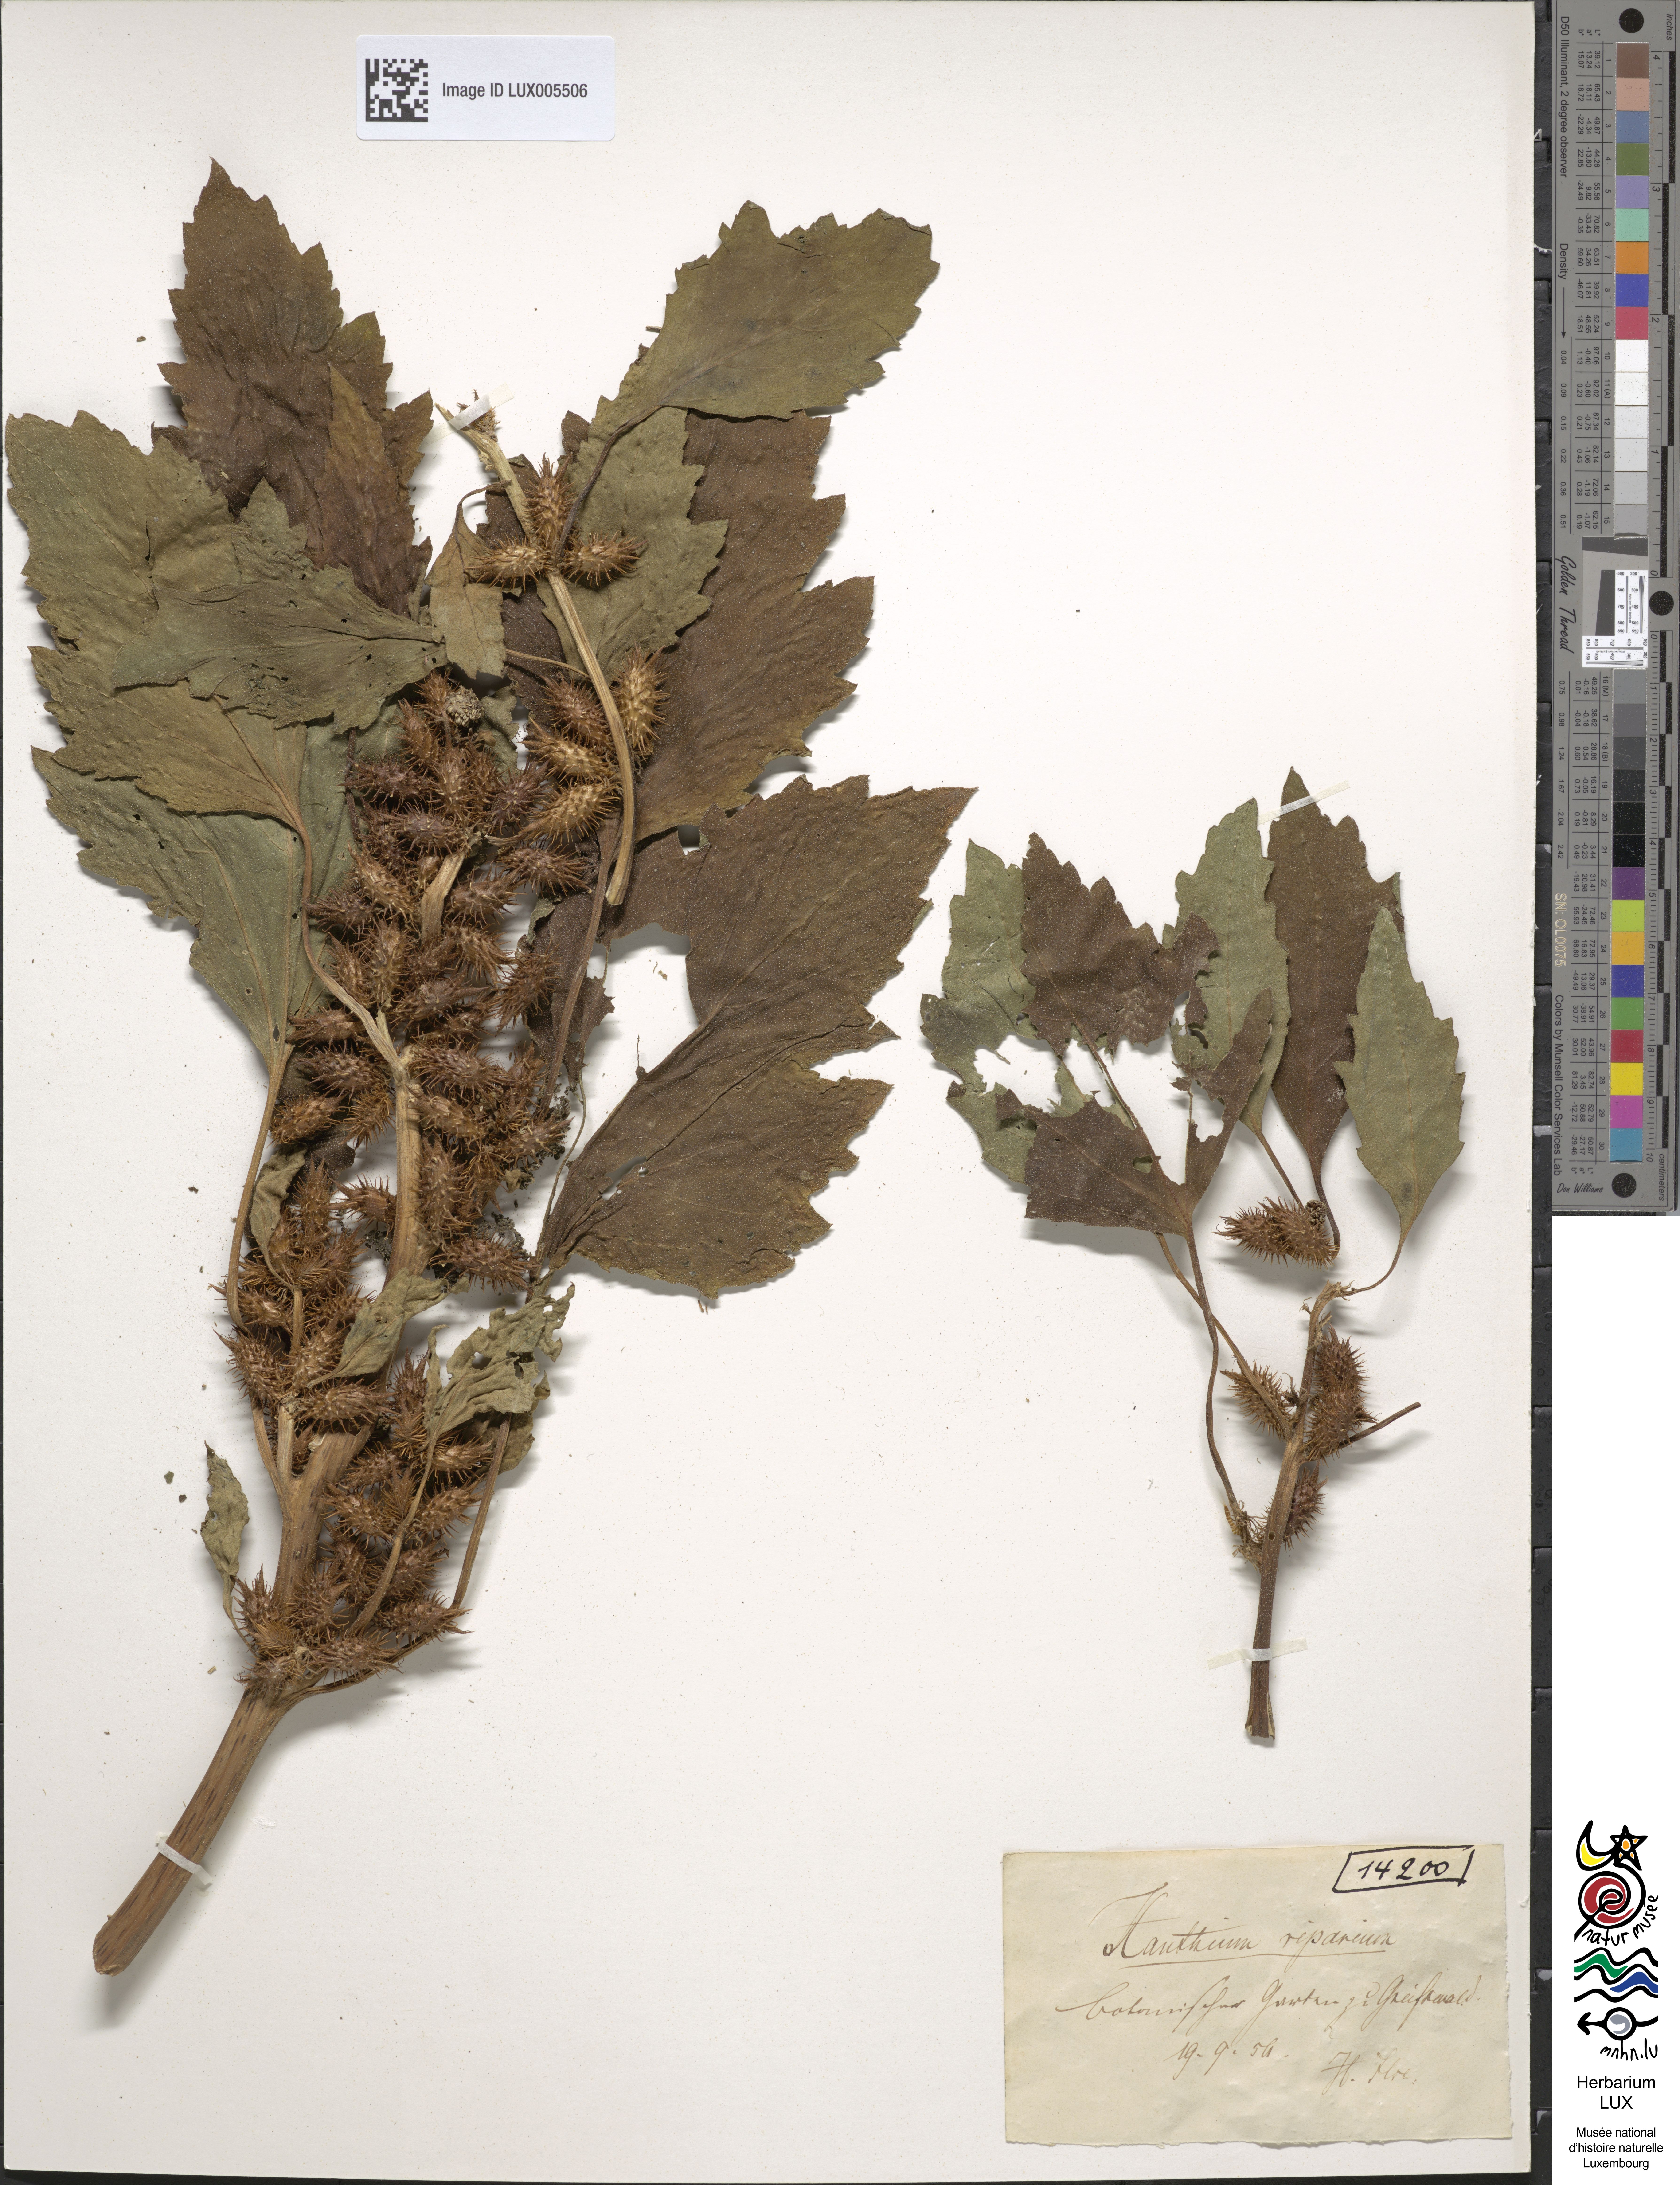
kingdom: Plantae
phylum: Tracheophyta
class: Magnoliopsida
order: Asterales
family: Asteraceae
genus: Xanthium
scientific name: Xanthium orientale
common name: Californian burr
